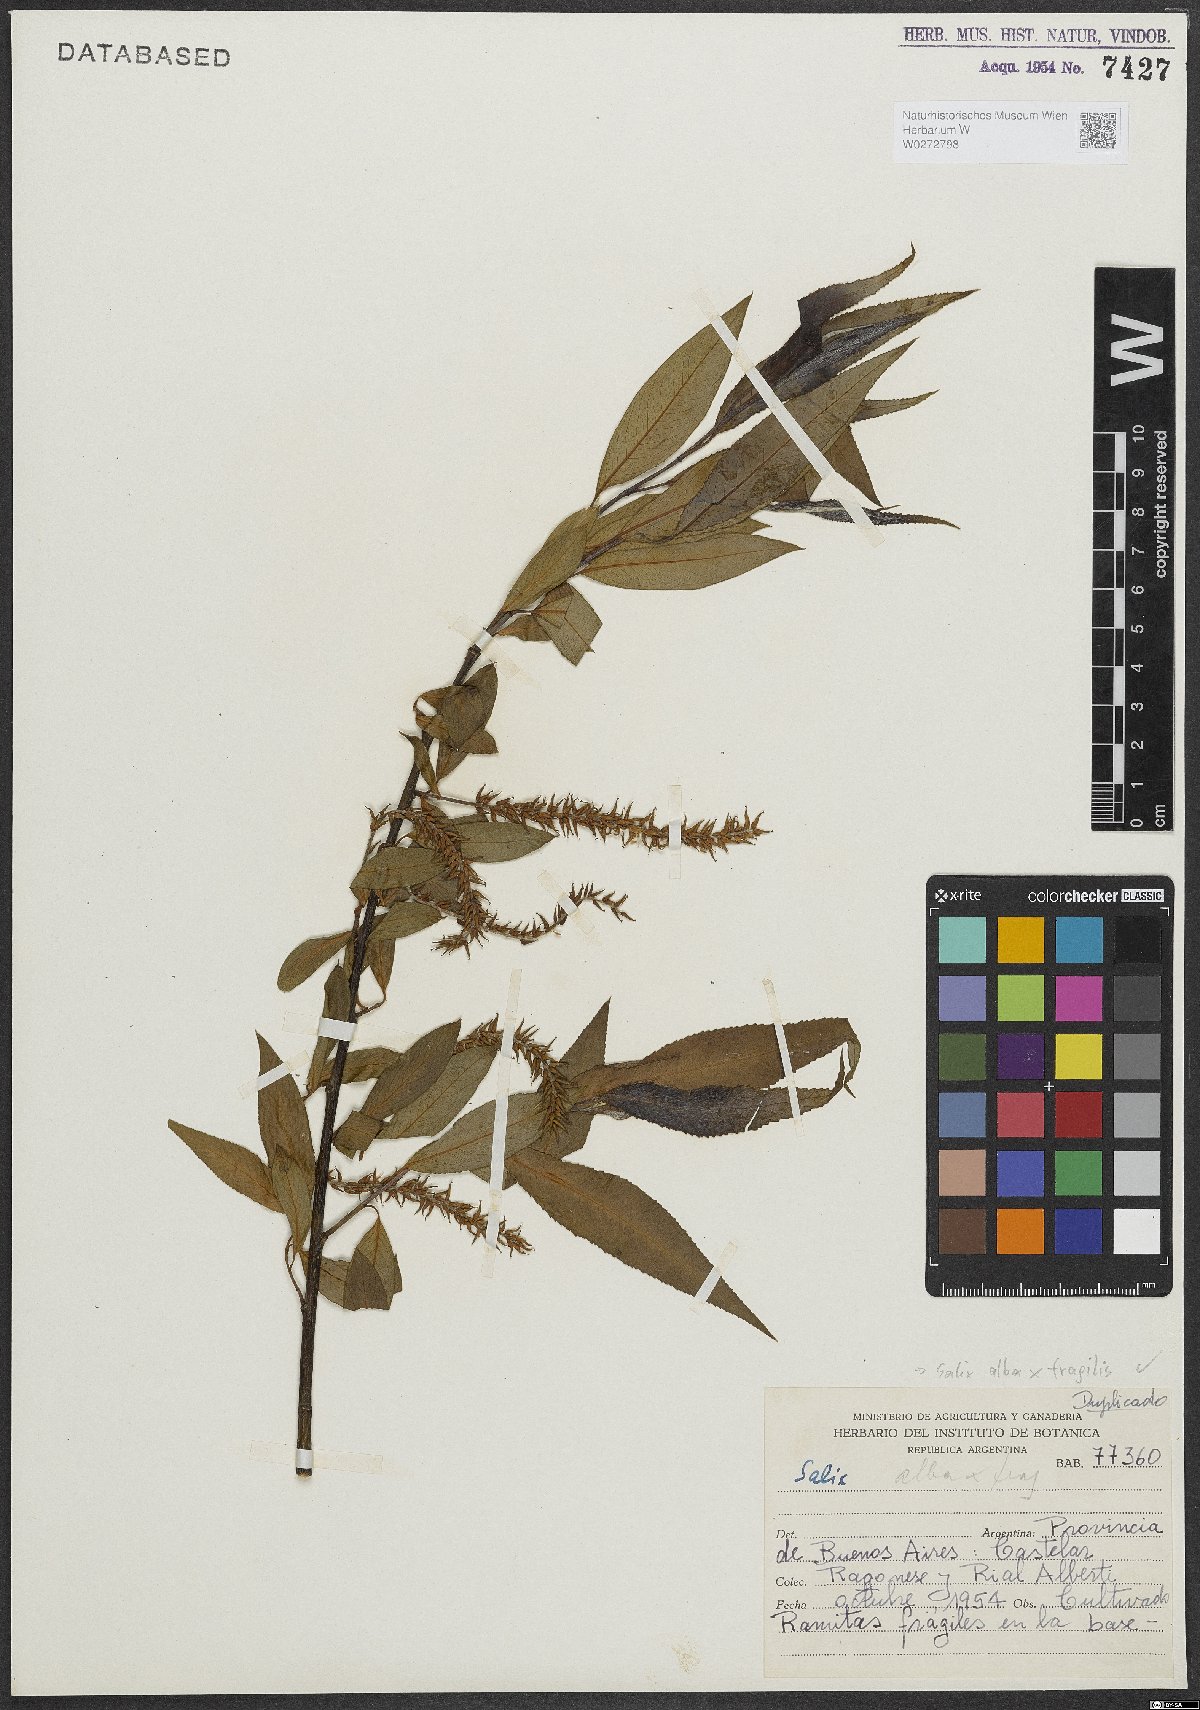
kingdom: Plantae
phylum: Tracheophyta
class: Magnoliopsida
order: Malpighiales
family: Salicaceae
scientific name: Salicaceae
